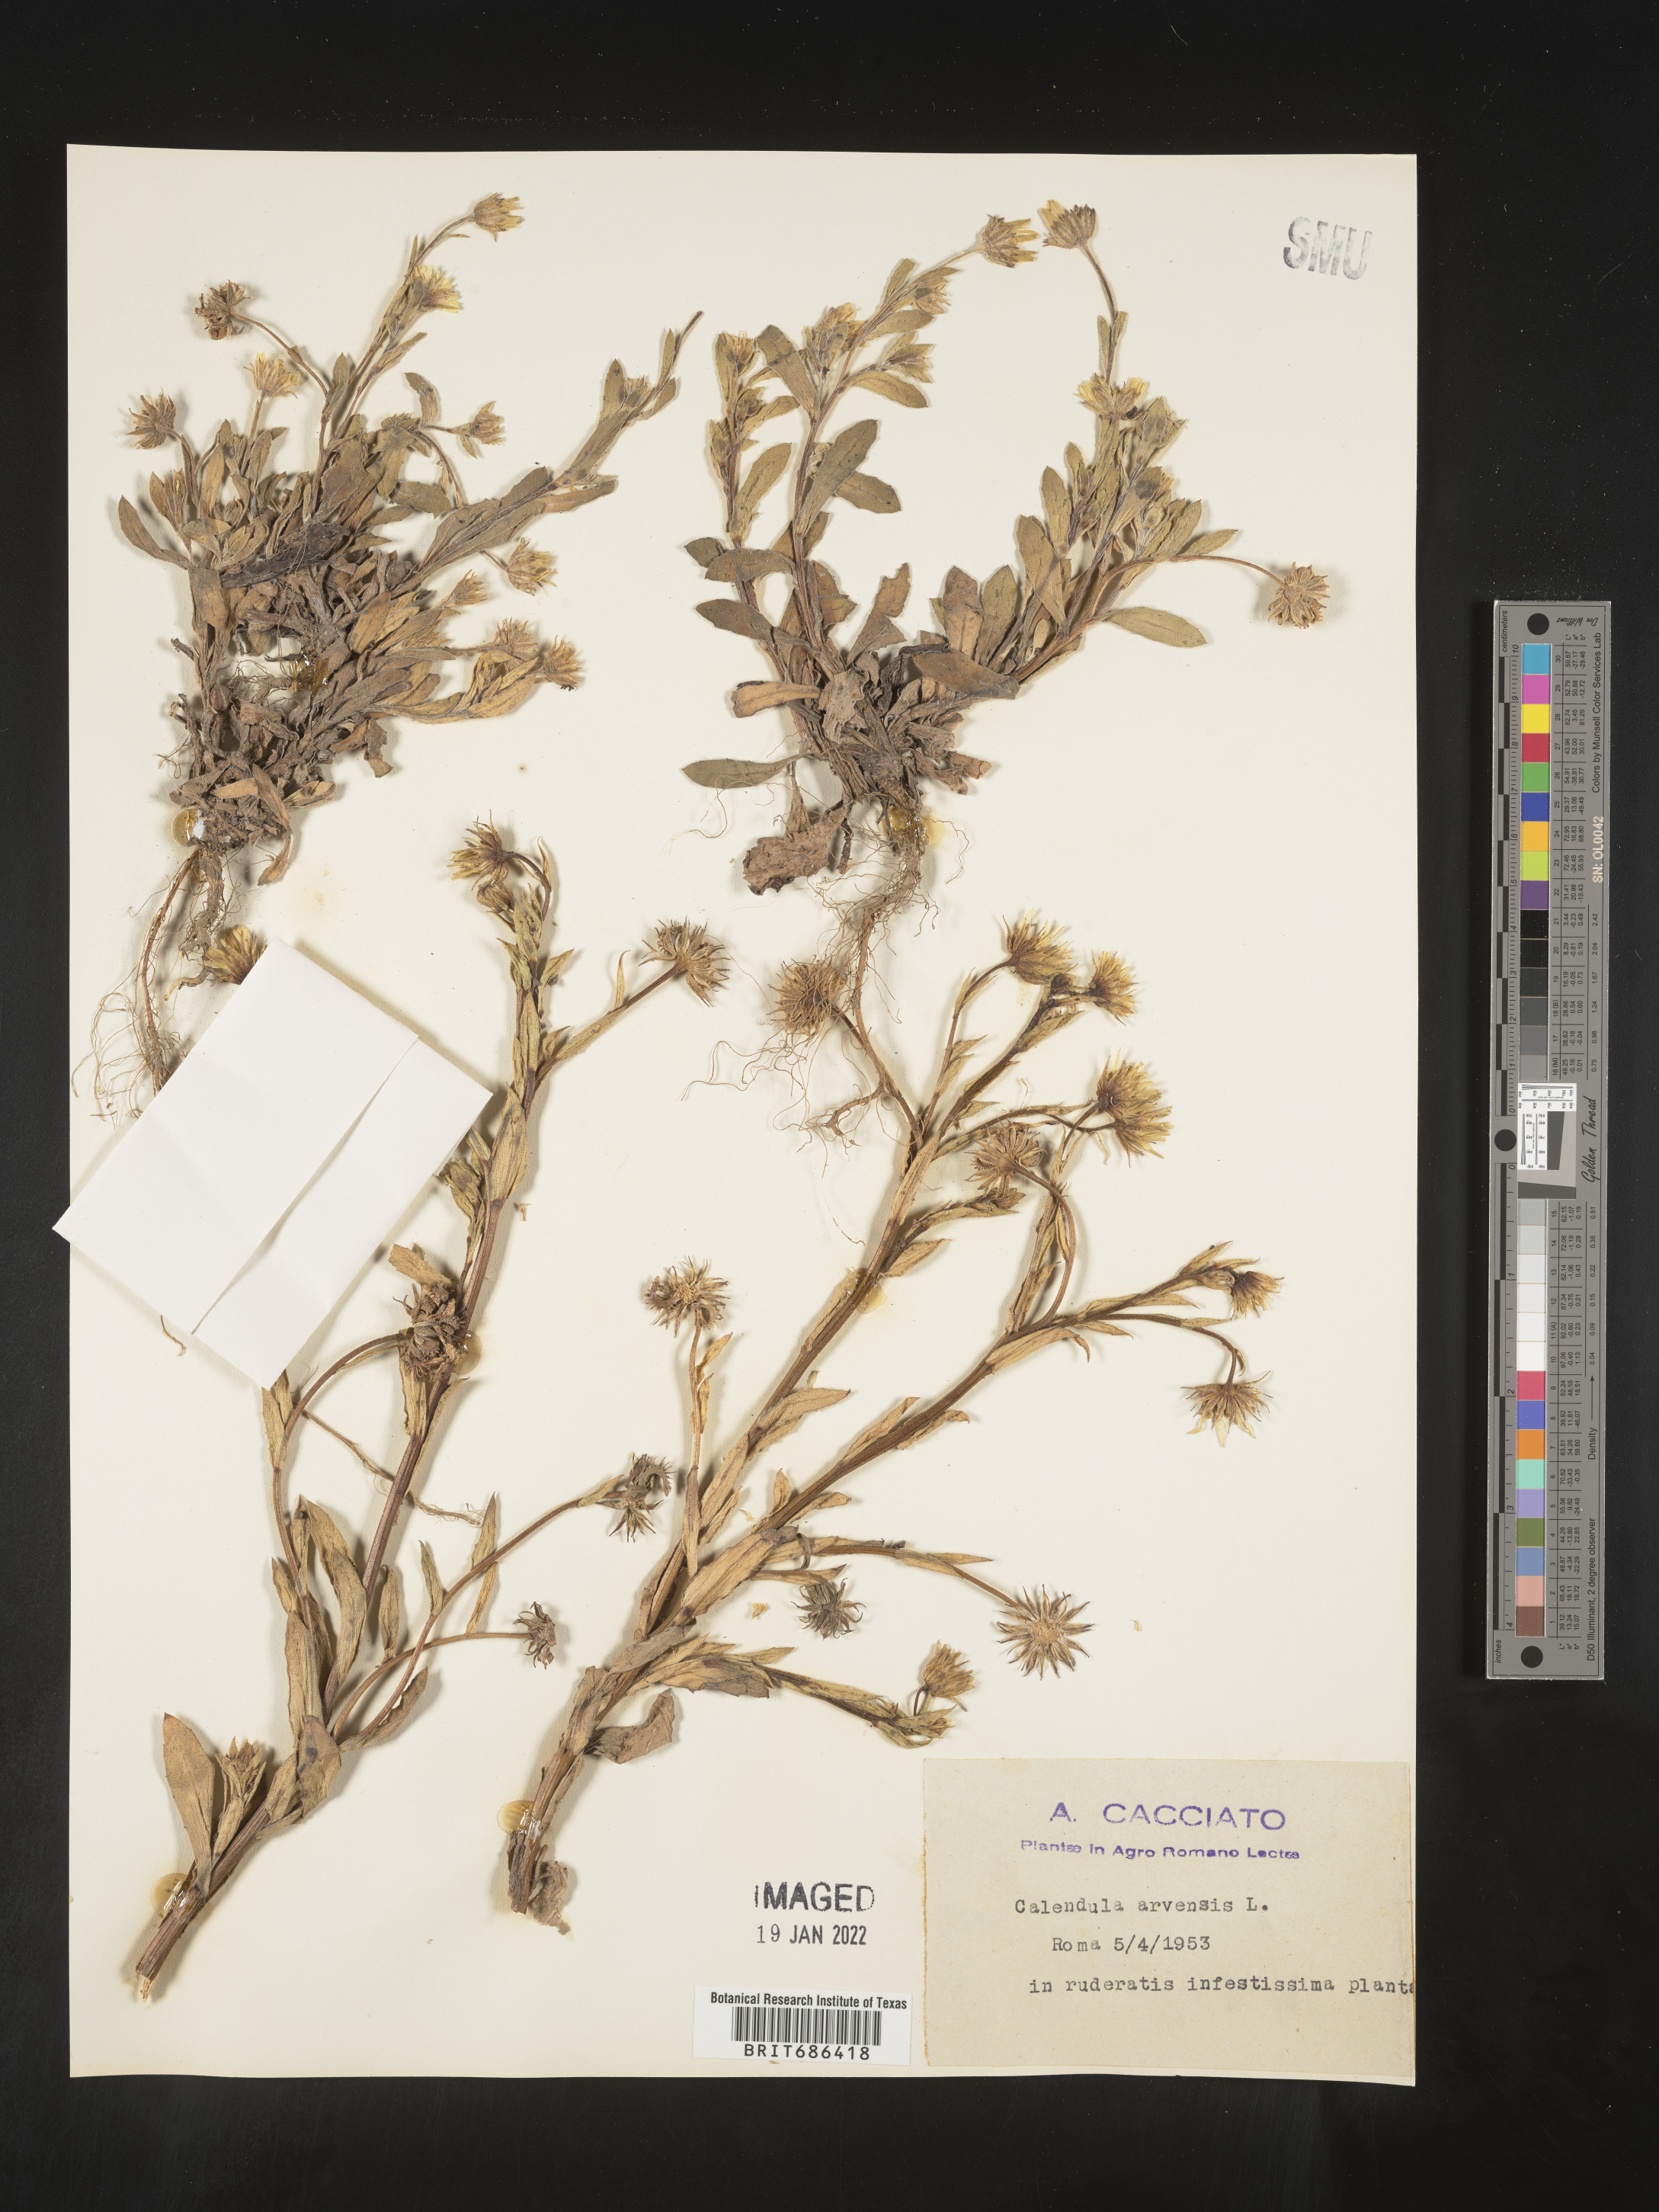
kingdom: Plantae
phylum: Tracheophyta
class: Magnoliopsida
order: Asterales
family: Asteraceae
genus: Calendula
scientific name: Calendula
